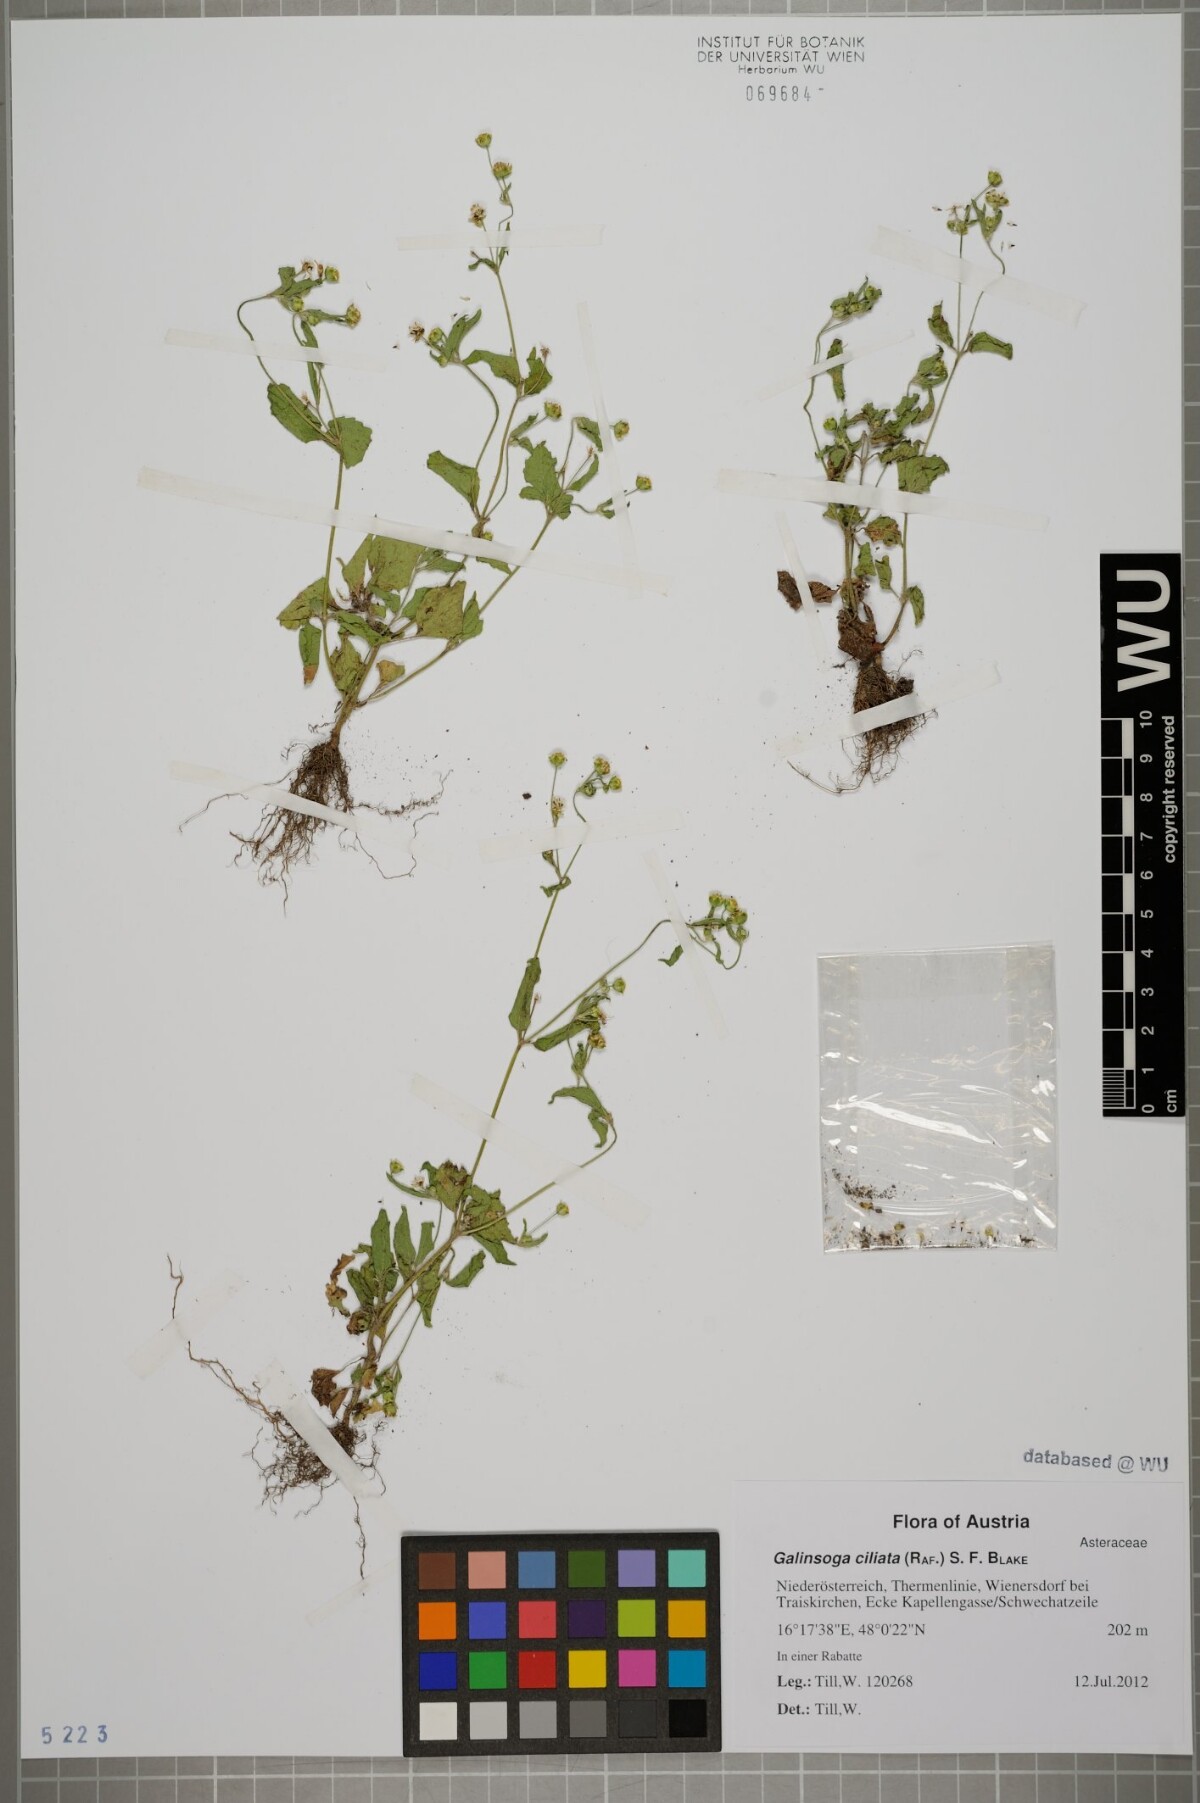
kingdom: Plantae
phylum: Tracheophyta
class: Magnoliopsida
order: Asterales
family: Asteraceae
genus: Galinsoga
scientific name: Galinsoga quadriradiata
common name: Shaggy soldier
